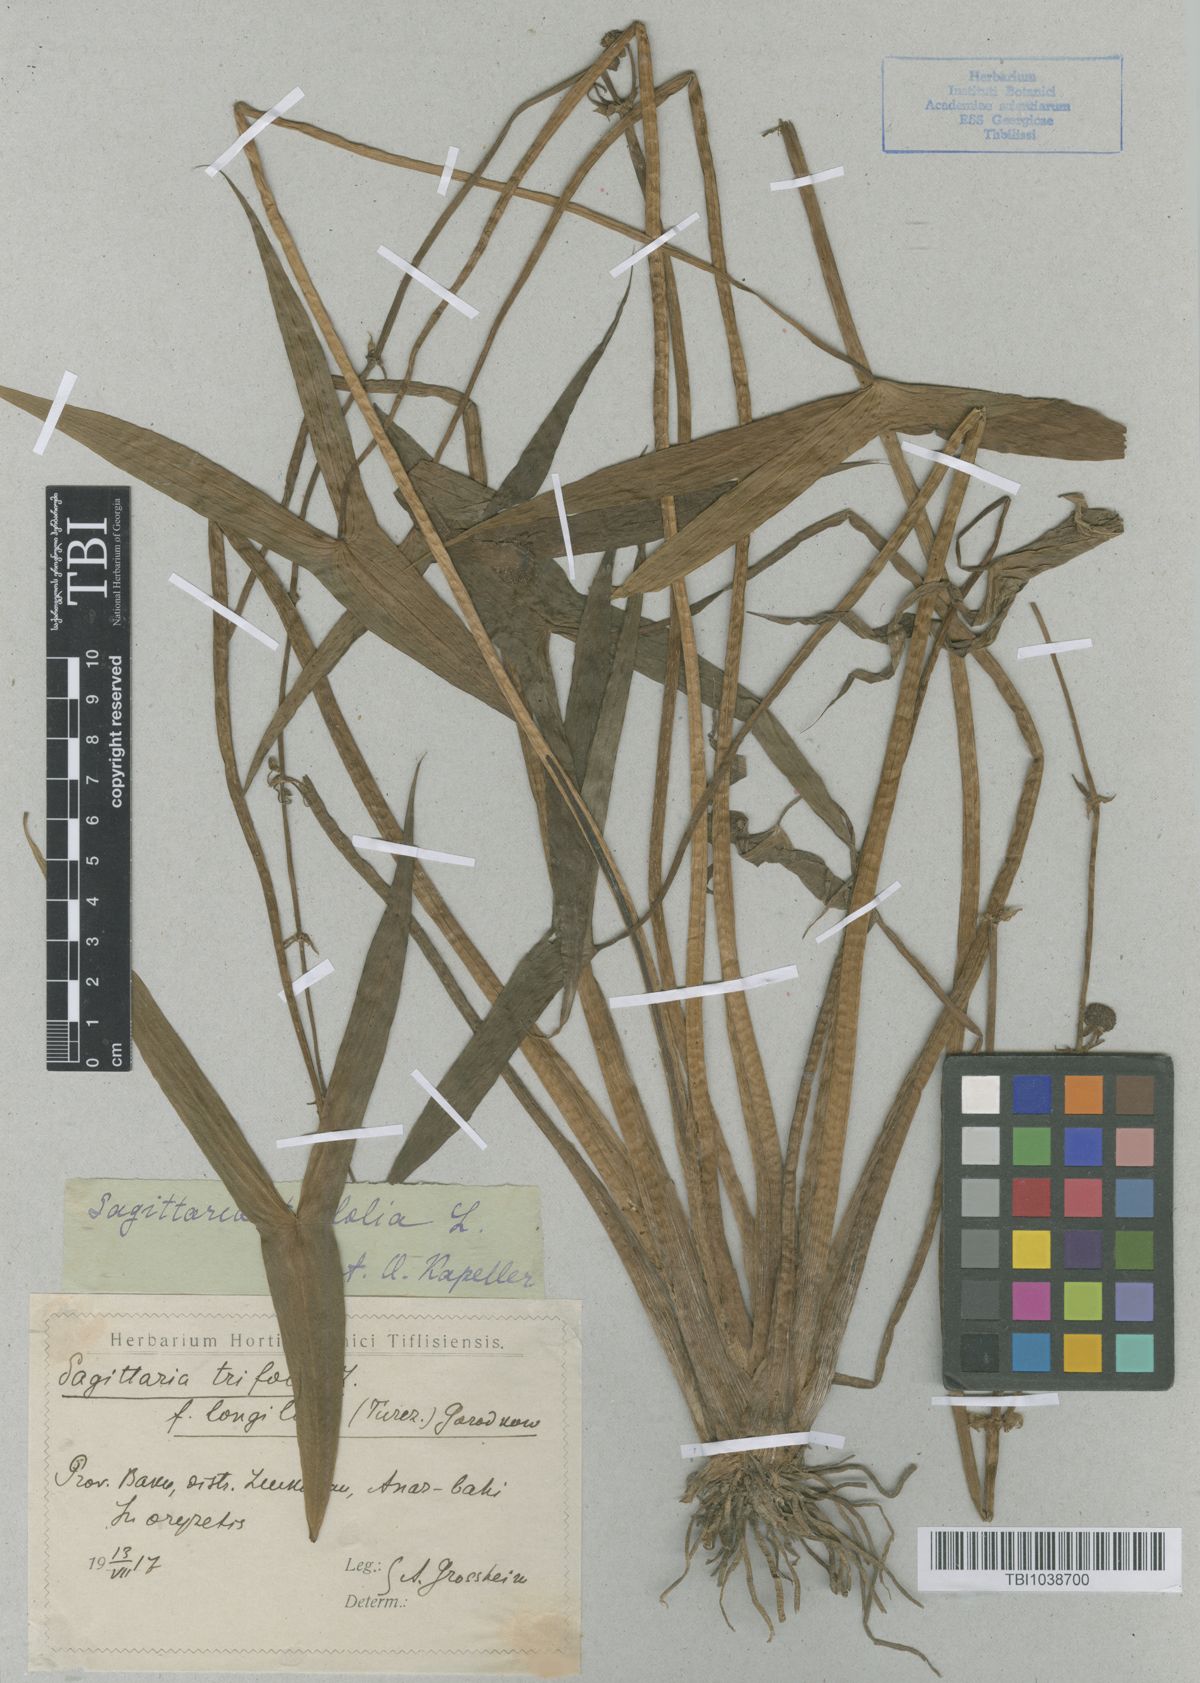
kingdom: Plantae
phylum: Tracheophyta
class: Liliopsida
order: Alismatales
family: Alismataceae
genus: Sagittaria
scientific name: Sagittaria trifolia
